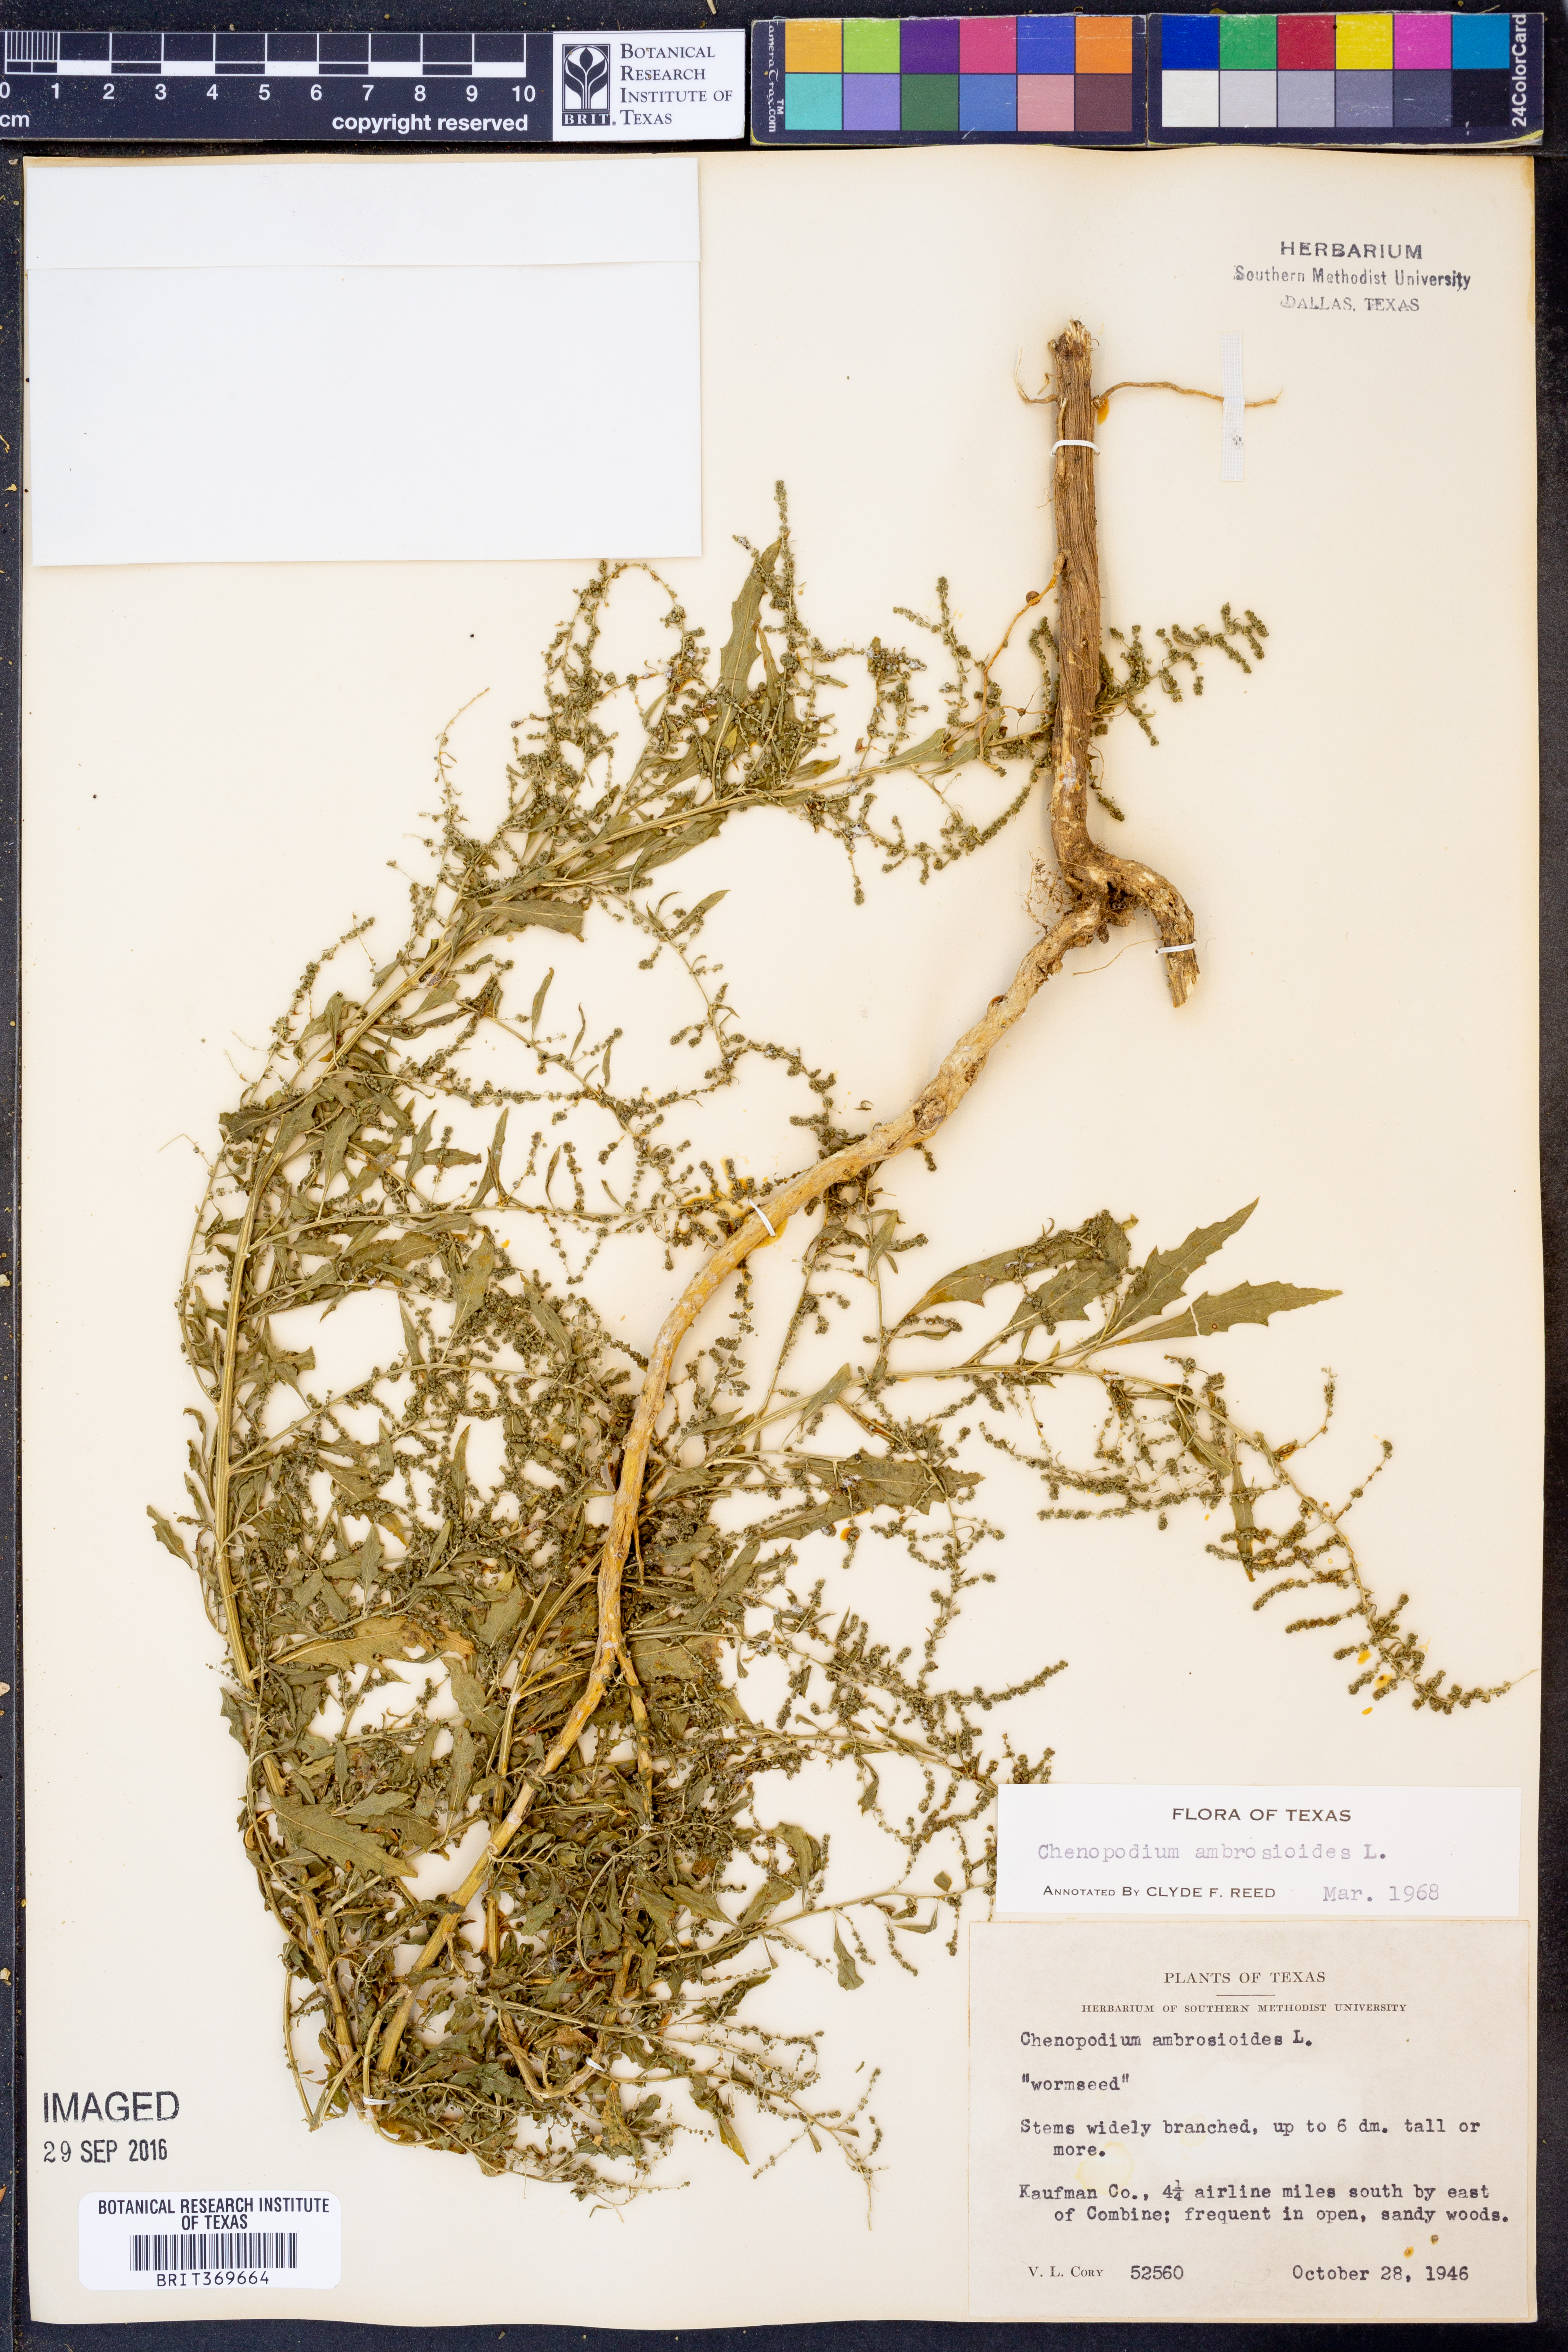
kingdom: Plantae
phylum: Tracheophyta
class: Magnoliopsida
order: Caryophyllales
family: Amaranthaceae
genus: Dysphania
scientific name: Dysphania ambrosioides
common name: Wormseed
